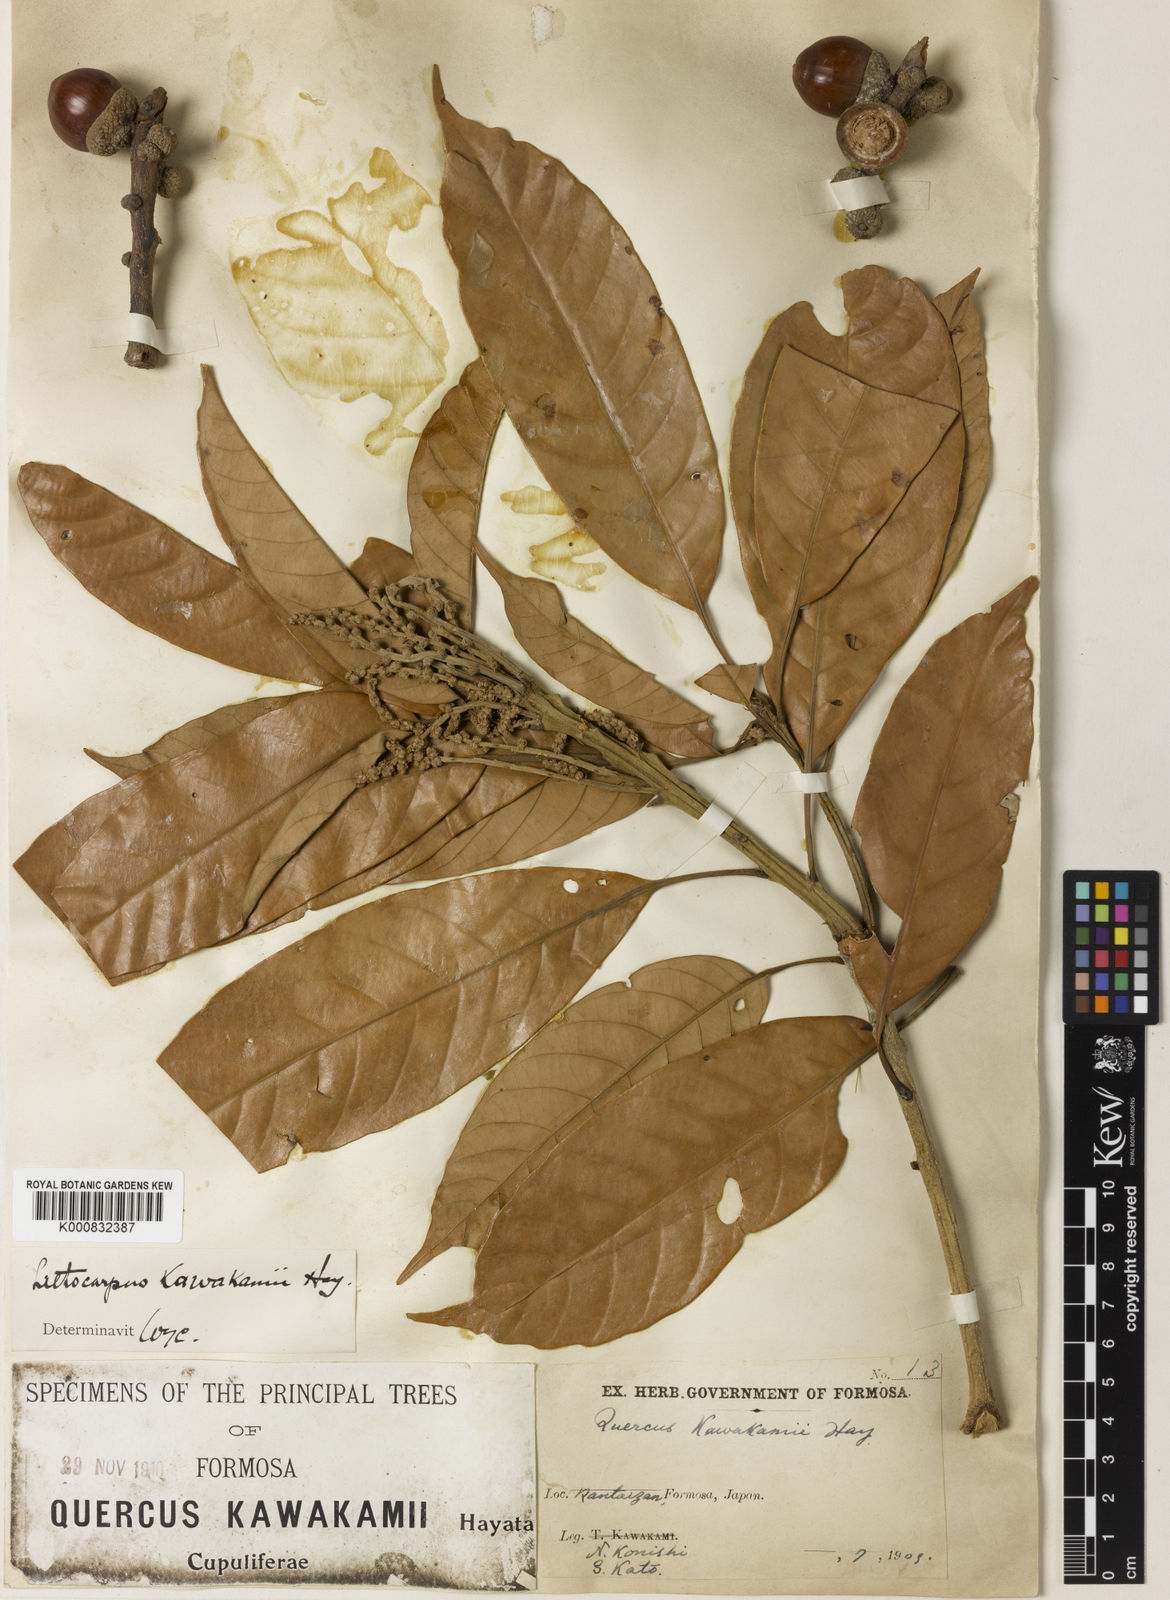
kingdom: Plantae
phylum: Tracheophyta
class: Magnoliopsida
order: Fagales
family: Fagaceae
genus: Lithocarpus
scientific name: Lithocarpus kawakamii
